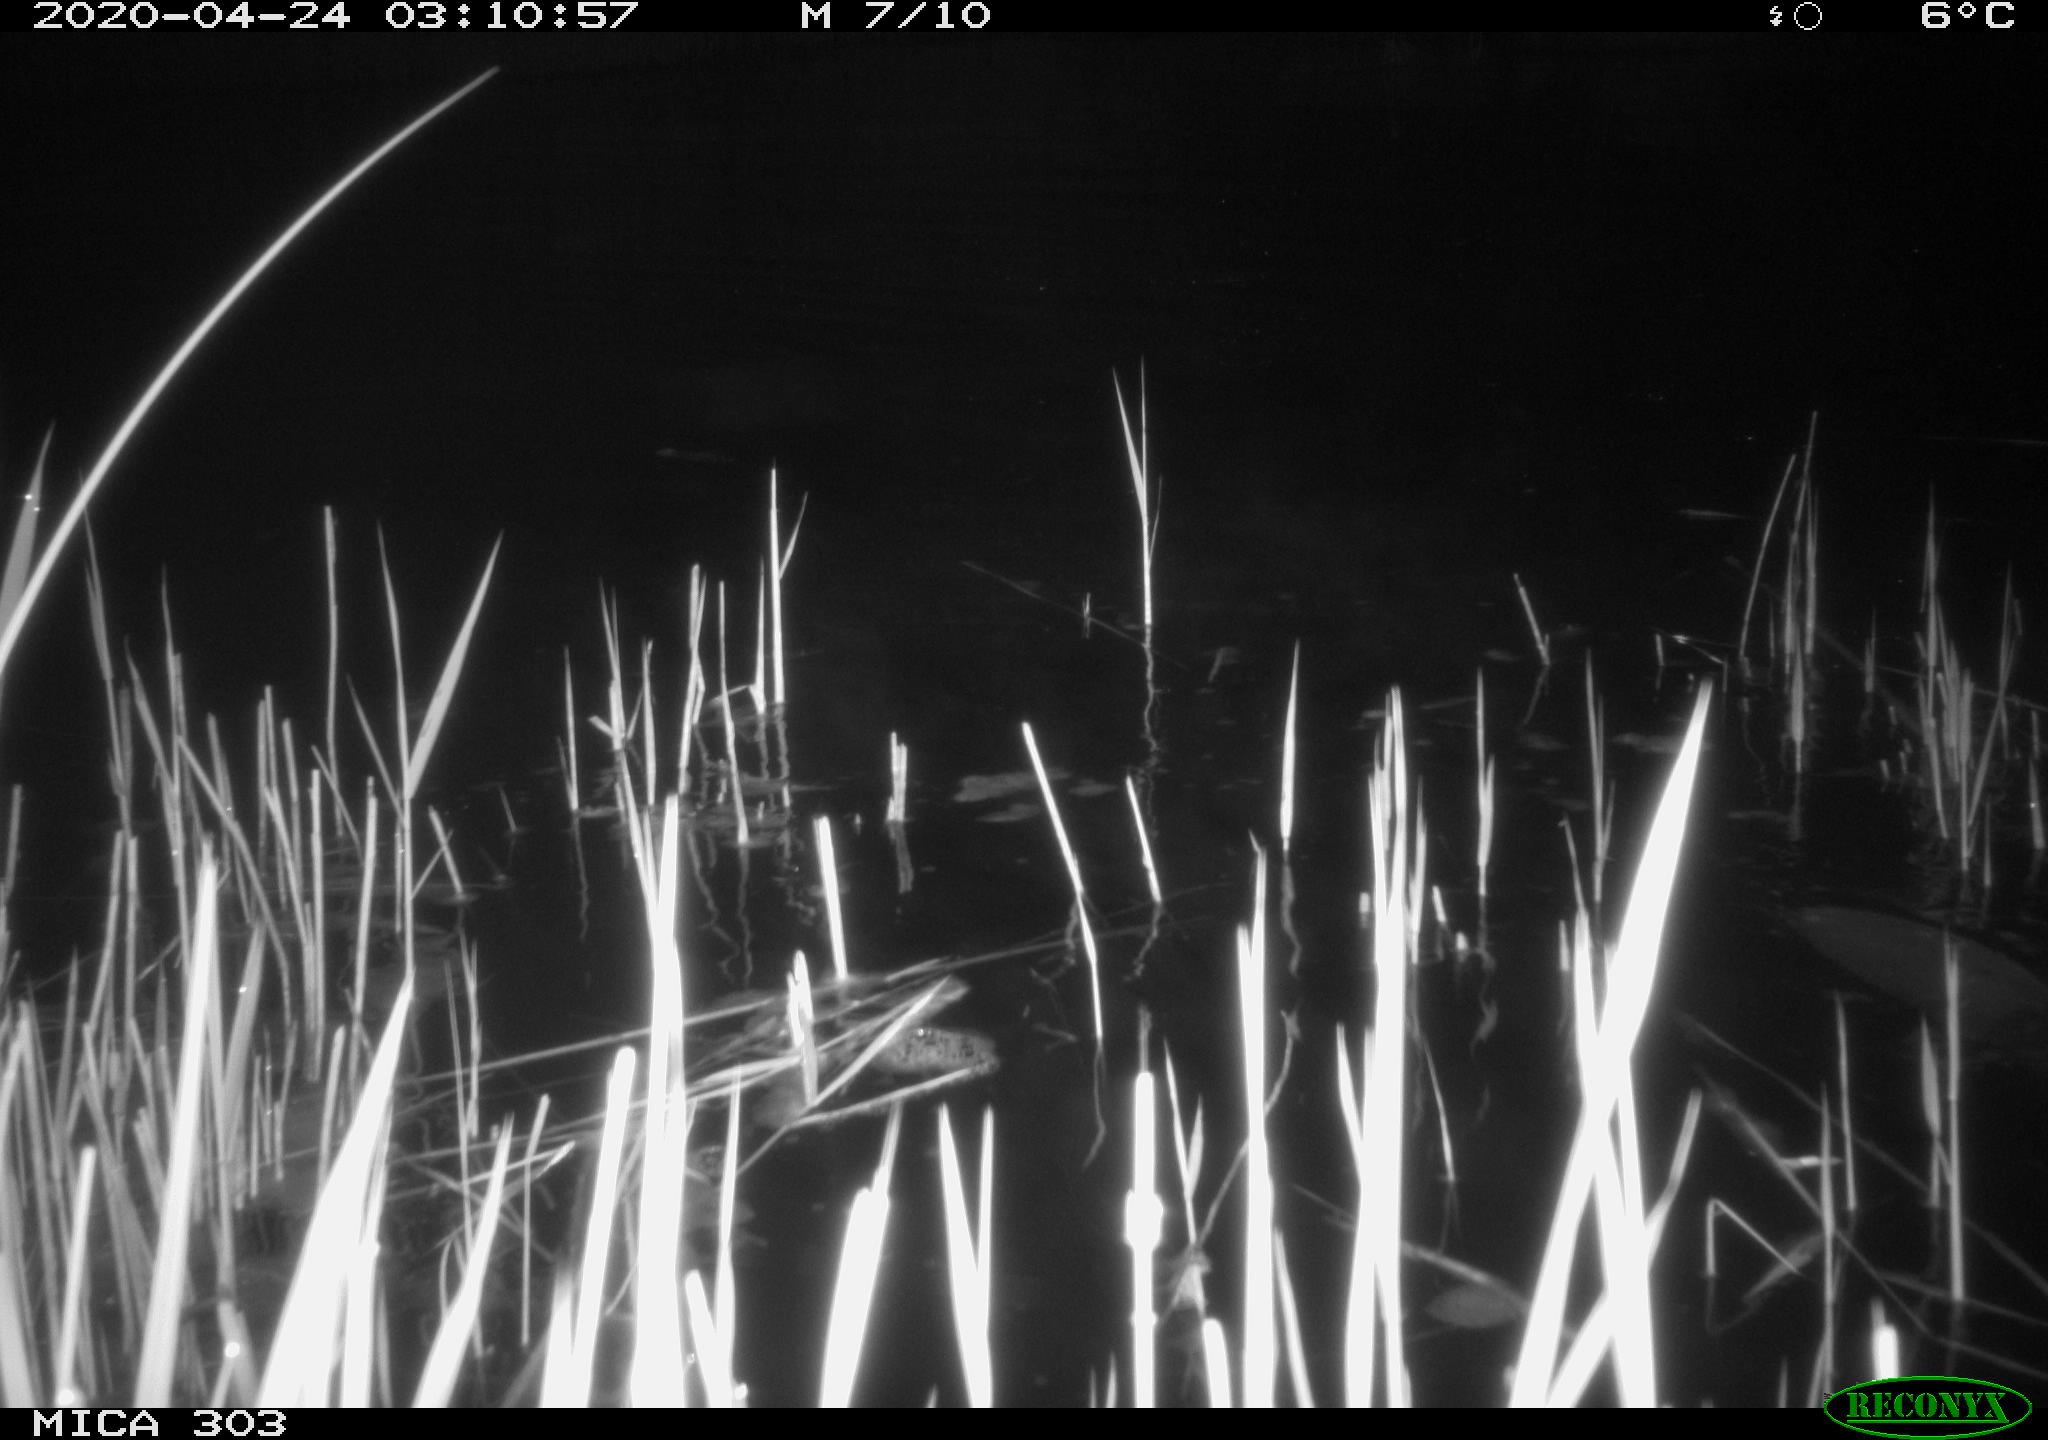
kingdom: Animalia
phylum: Chordata
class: Mammalia
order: Rodentia
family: Castoridae
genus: Castor
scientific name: Castor fiber
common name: Eurasian beaver
